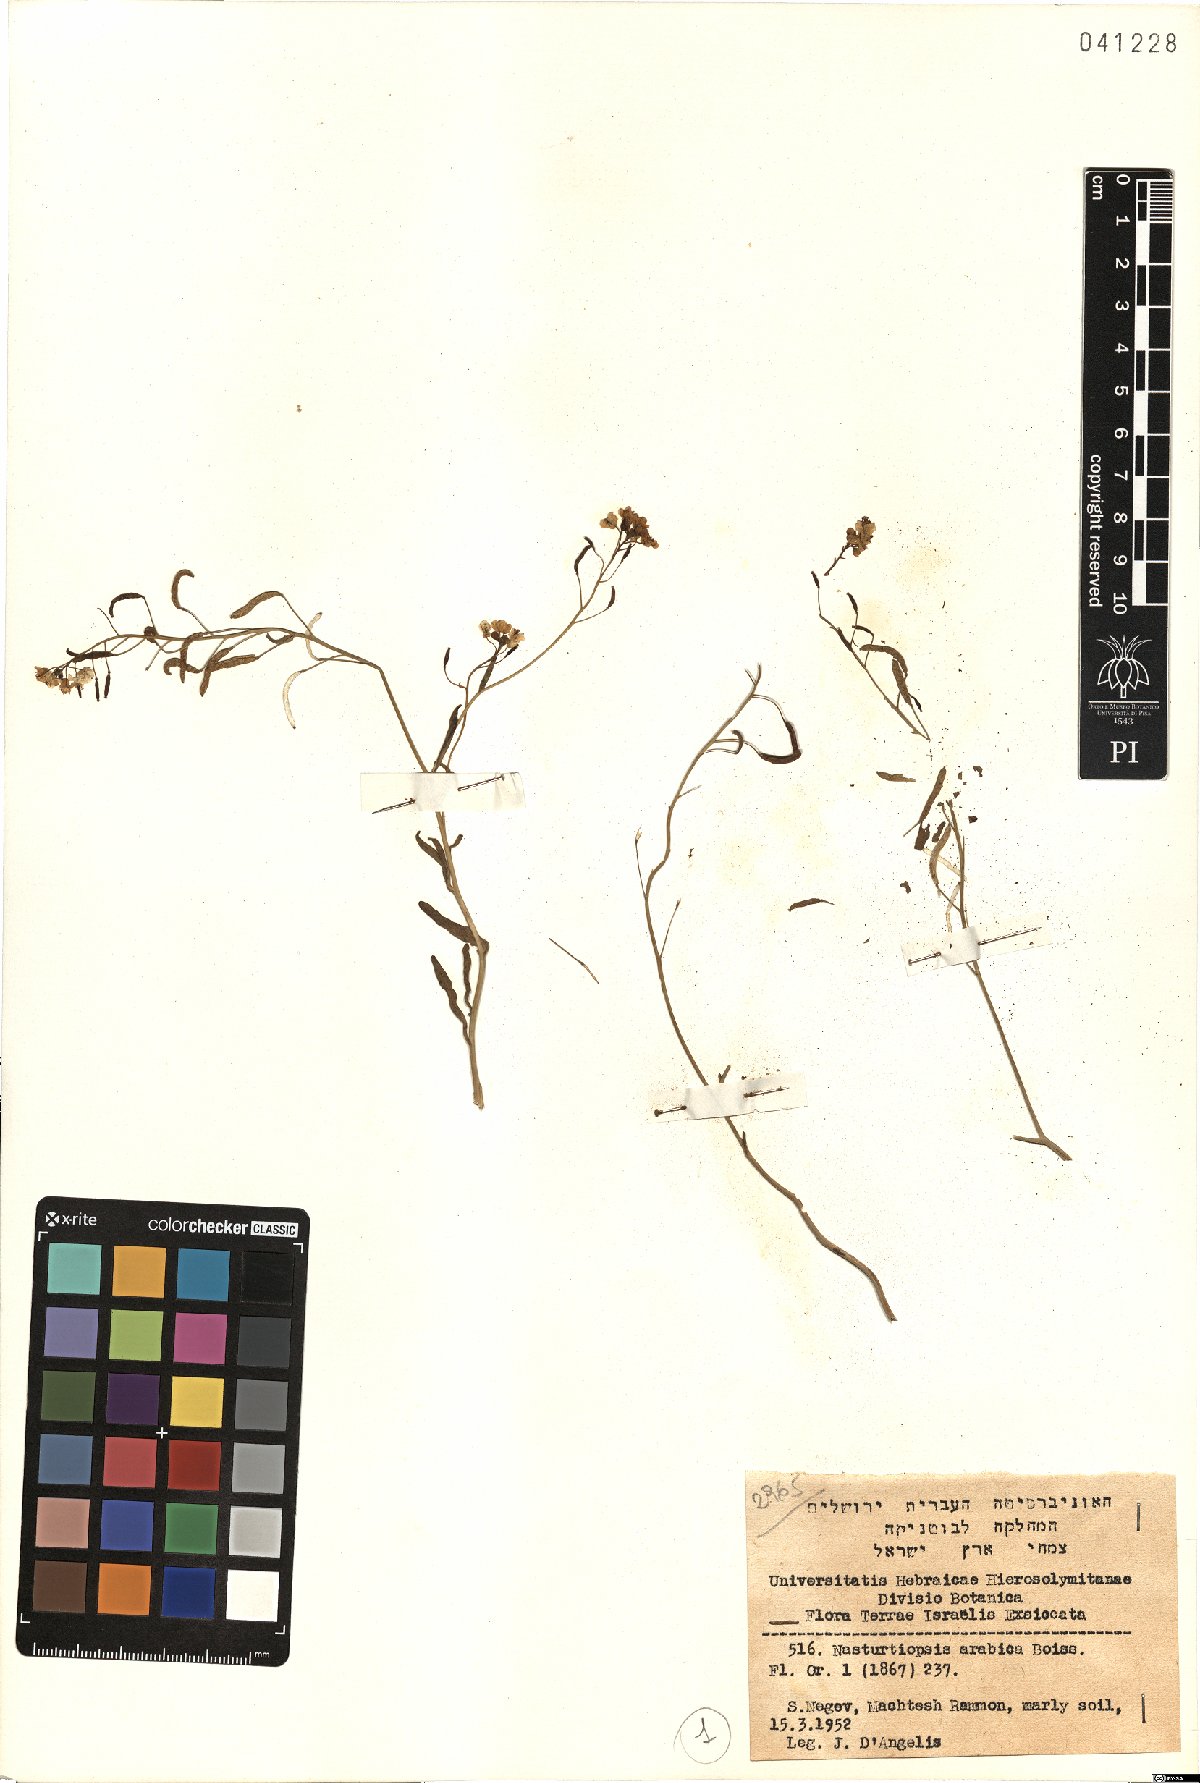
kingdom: Plantae
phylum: Tracheophyta
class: Magnoliopsida
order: Brassicales
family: Brassicaceae
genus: Nasturtiopsis
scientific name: Nasturtiopsis coronopifolia
